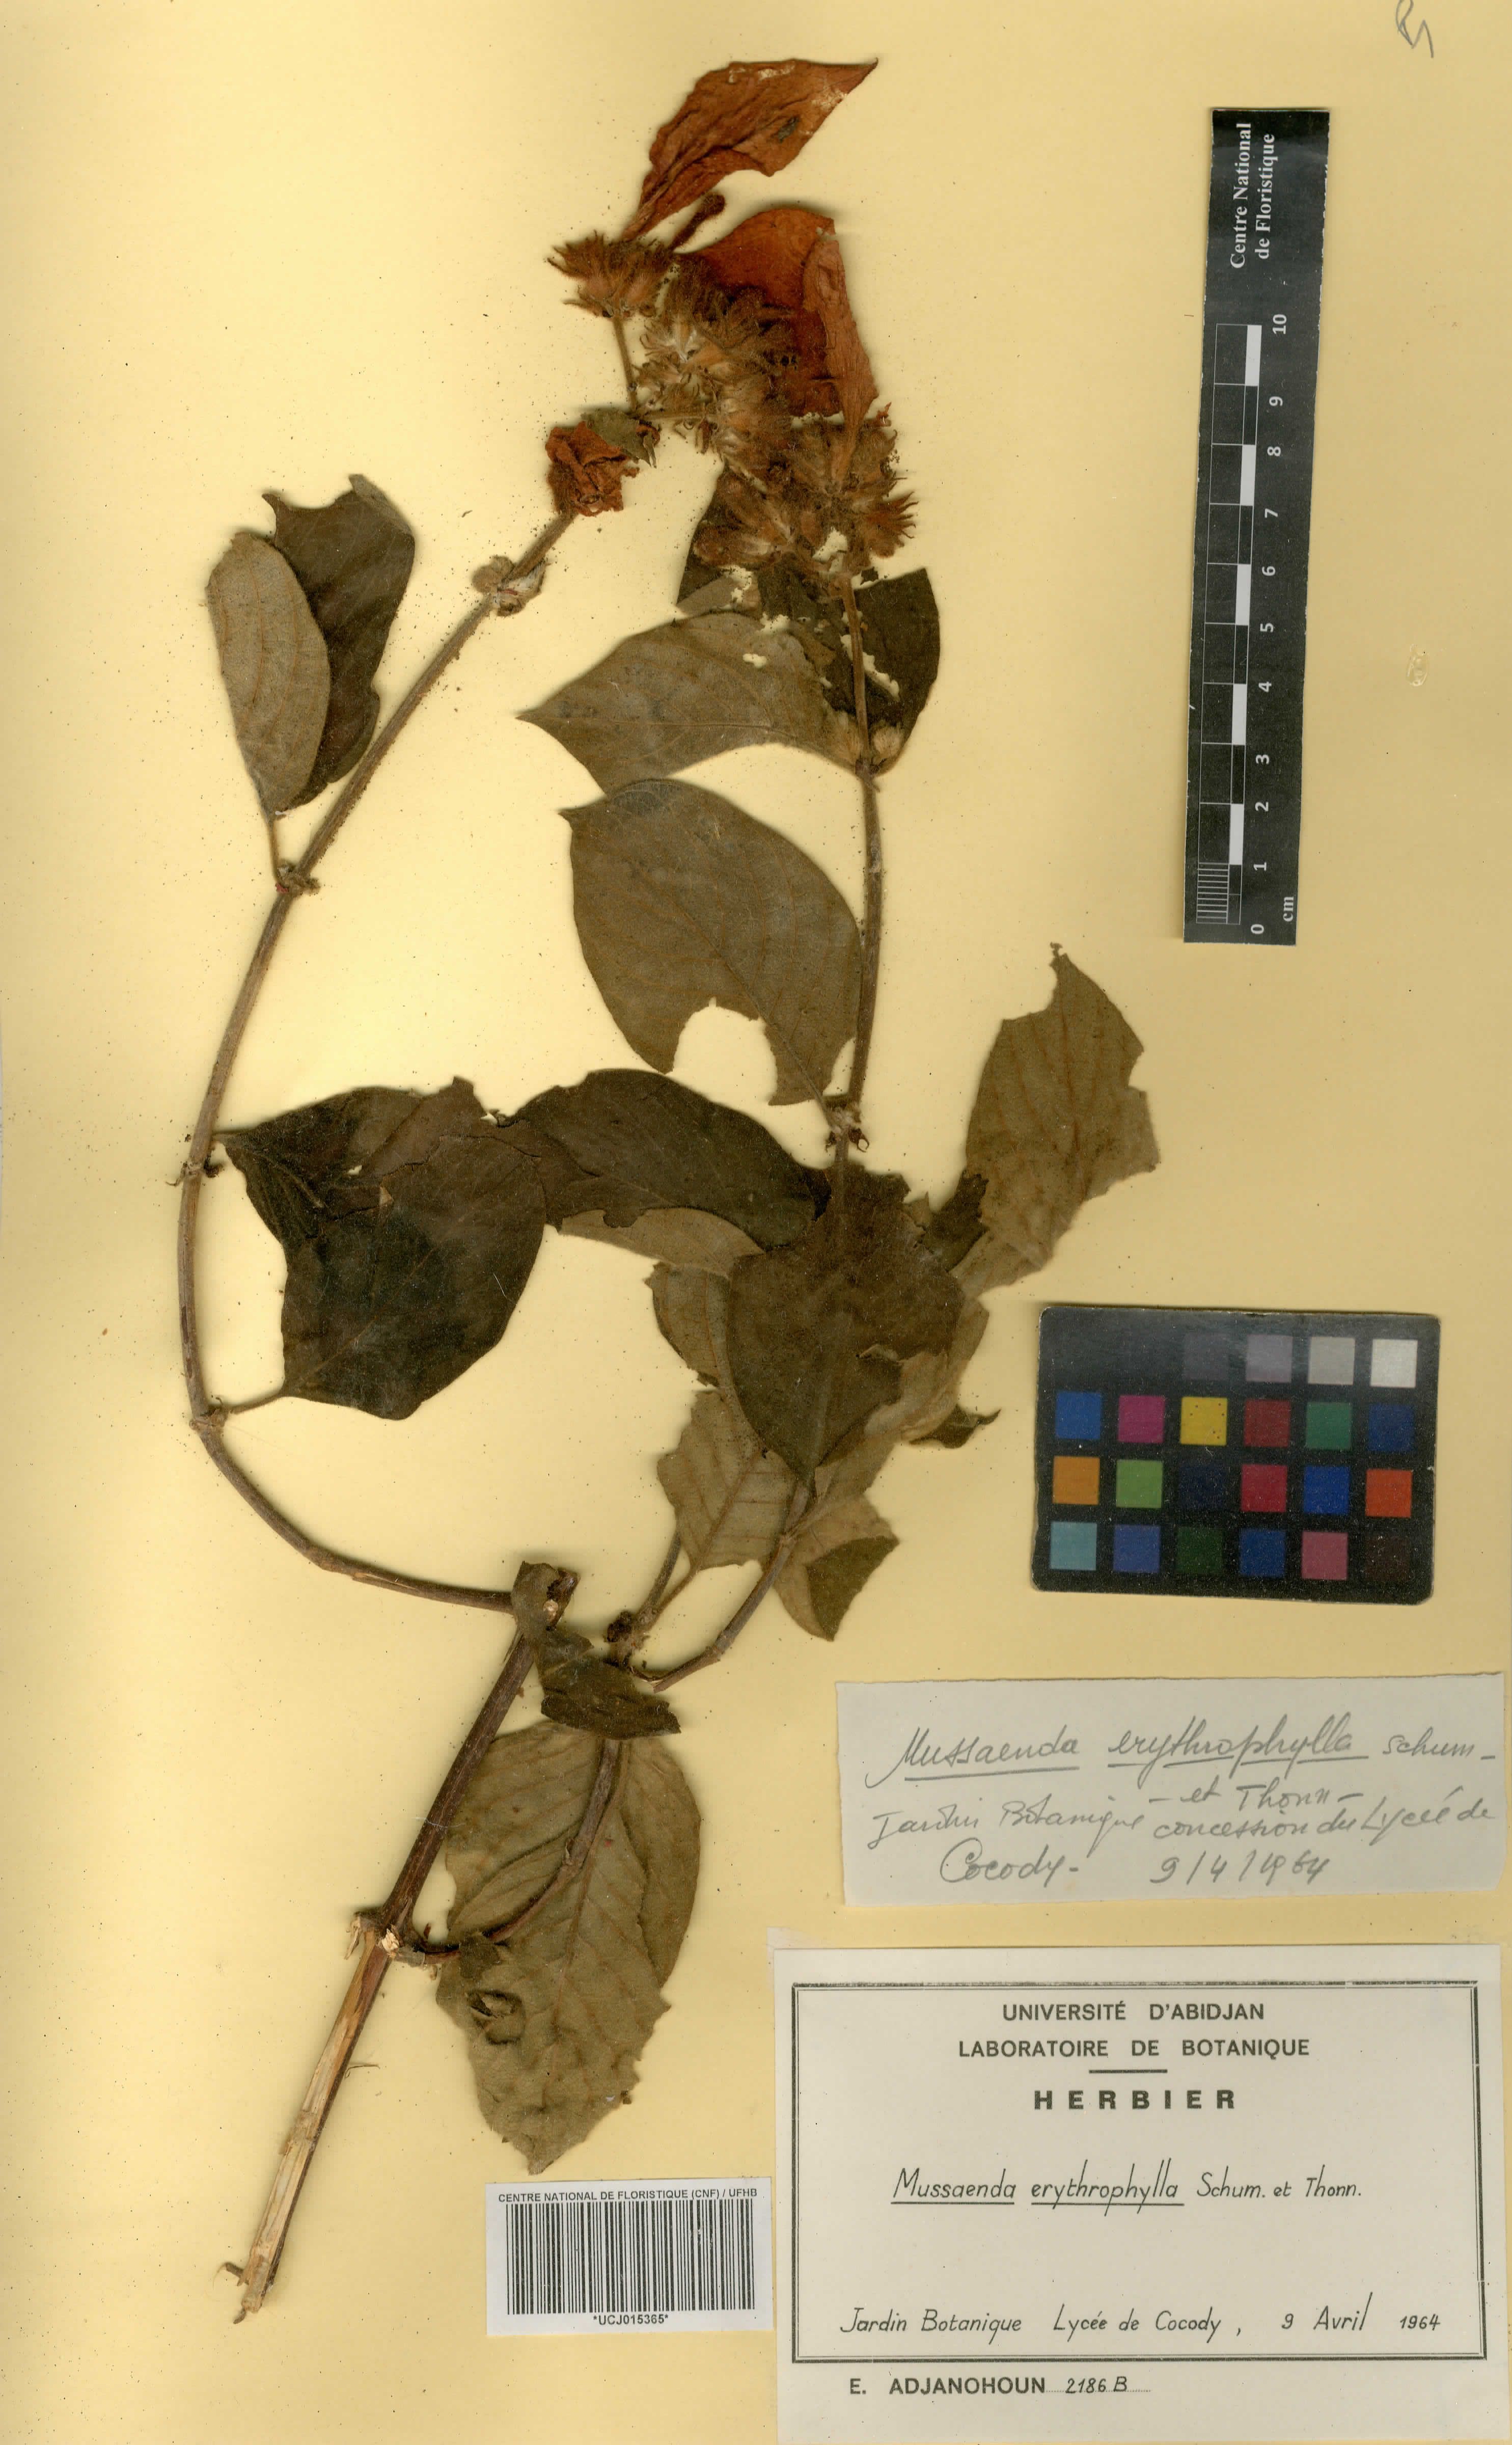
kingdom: Plantae
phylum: Tracheophyta
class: Magnoliopsida
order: Gentianales
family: Rubiaceae
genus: Mussaenda
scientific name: Mussaenda erythrophylla
